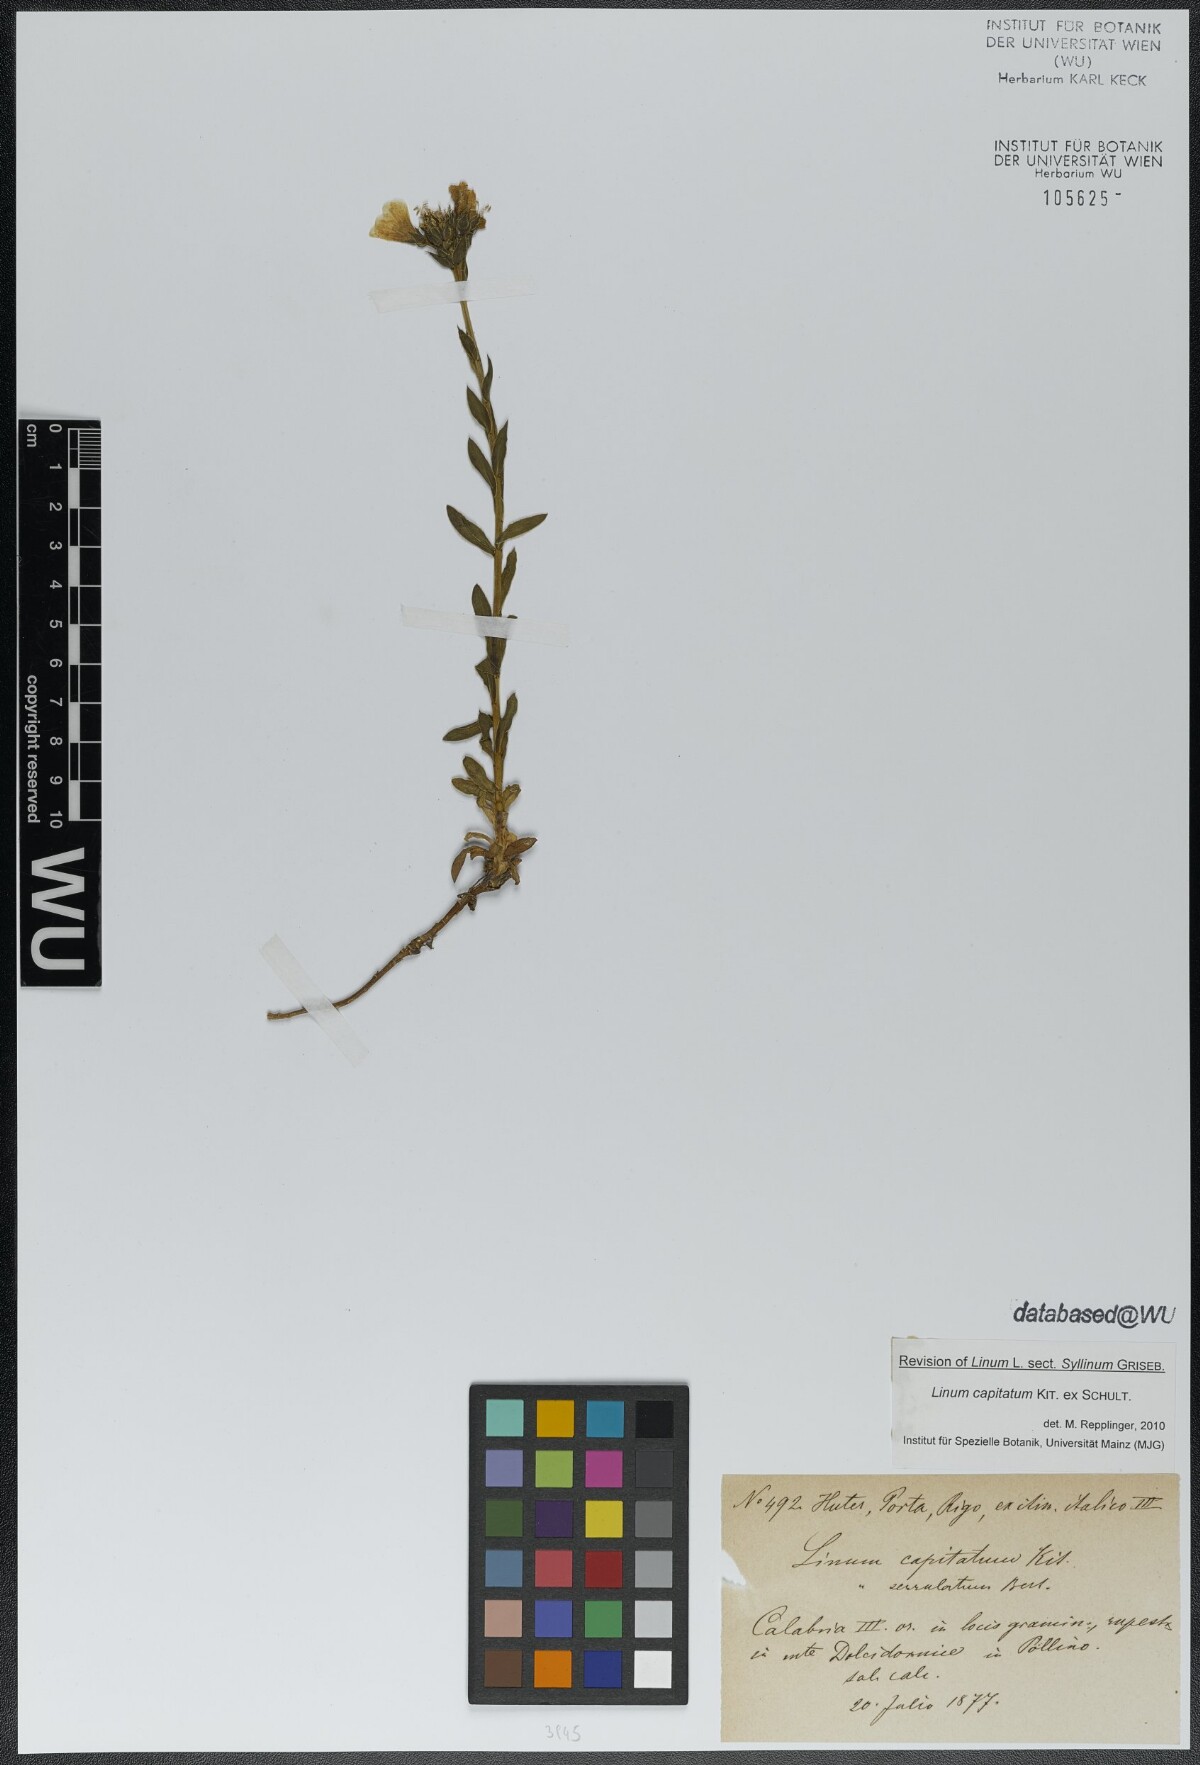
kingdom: Plantae
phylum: Tracheophyta
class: Magnoliopsida
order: Malpighiales
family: Linaceae
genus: Linum
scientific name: Linum capitatum
